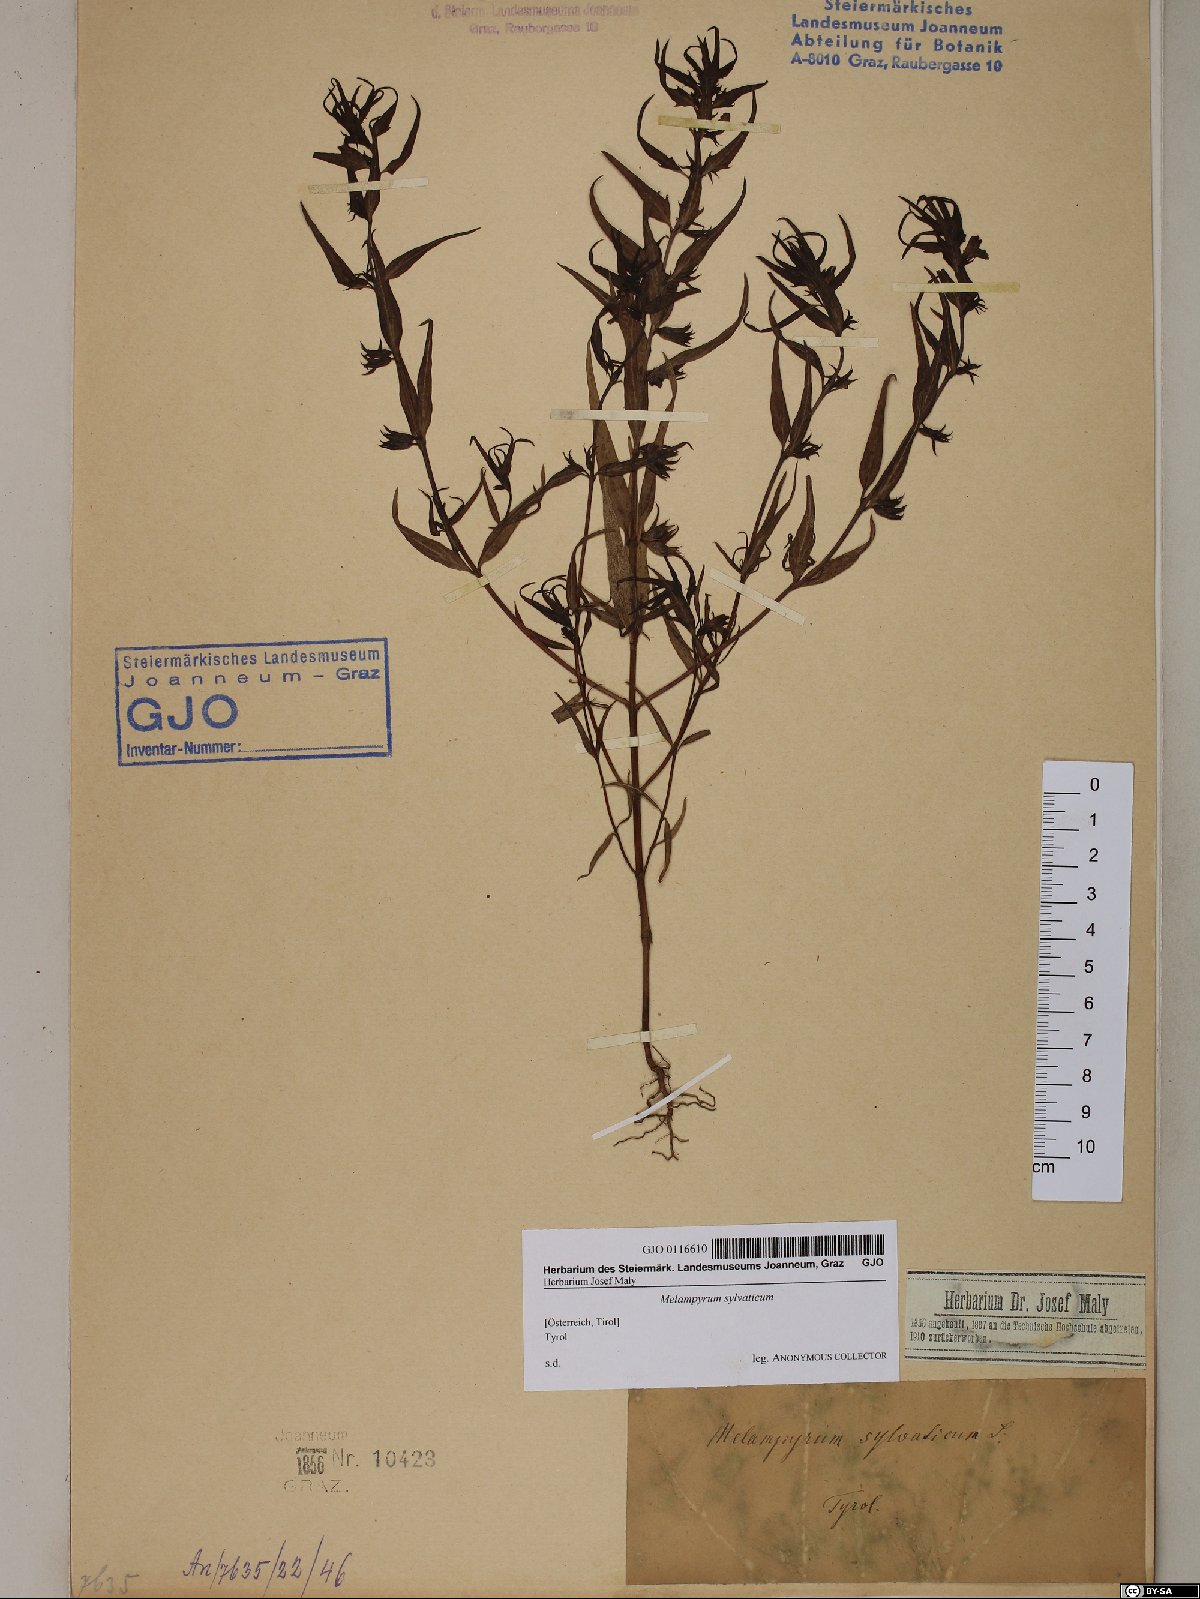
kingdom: Plantae
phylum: Tracheophyta
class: Magnoliopsida
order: Lamiales
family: Orobanchaceae
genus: Melampyrum
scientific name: Melampyrum sylvaticum
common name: Small cow-wheat
